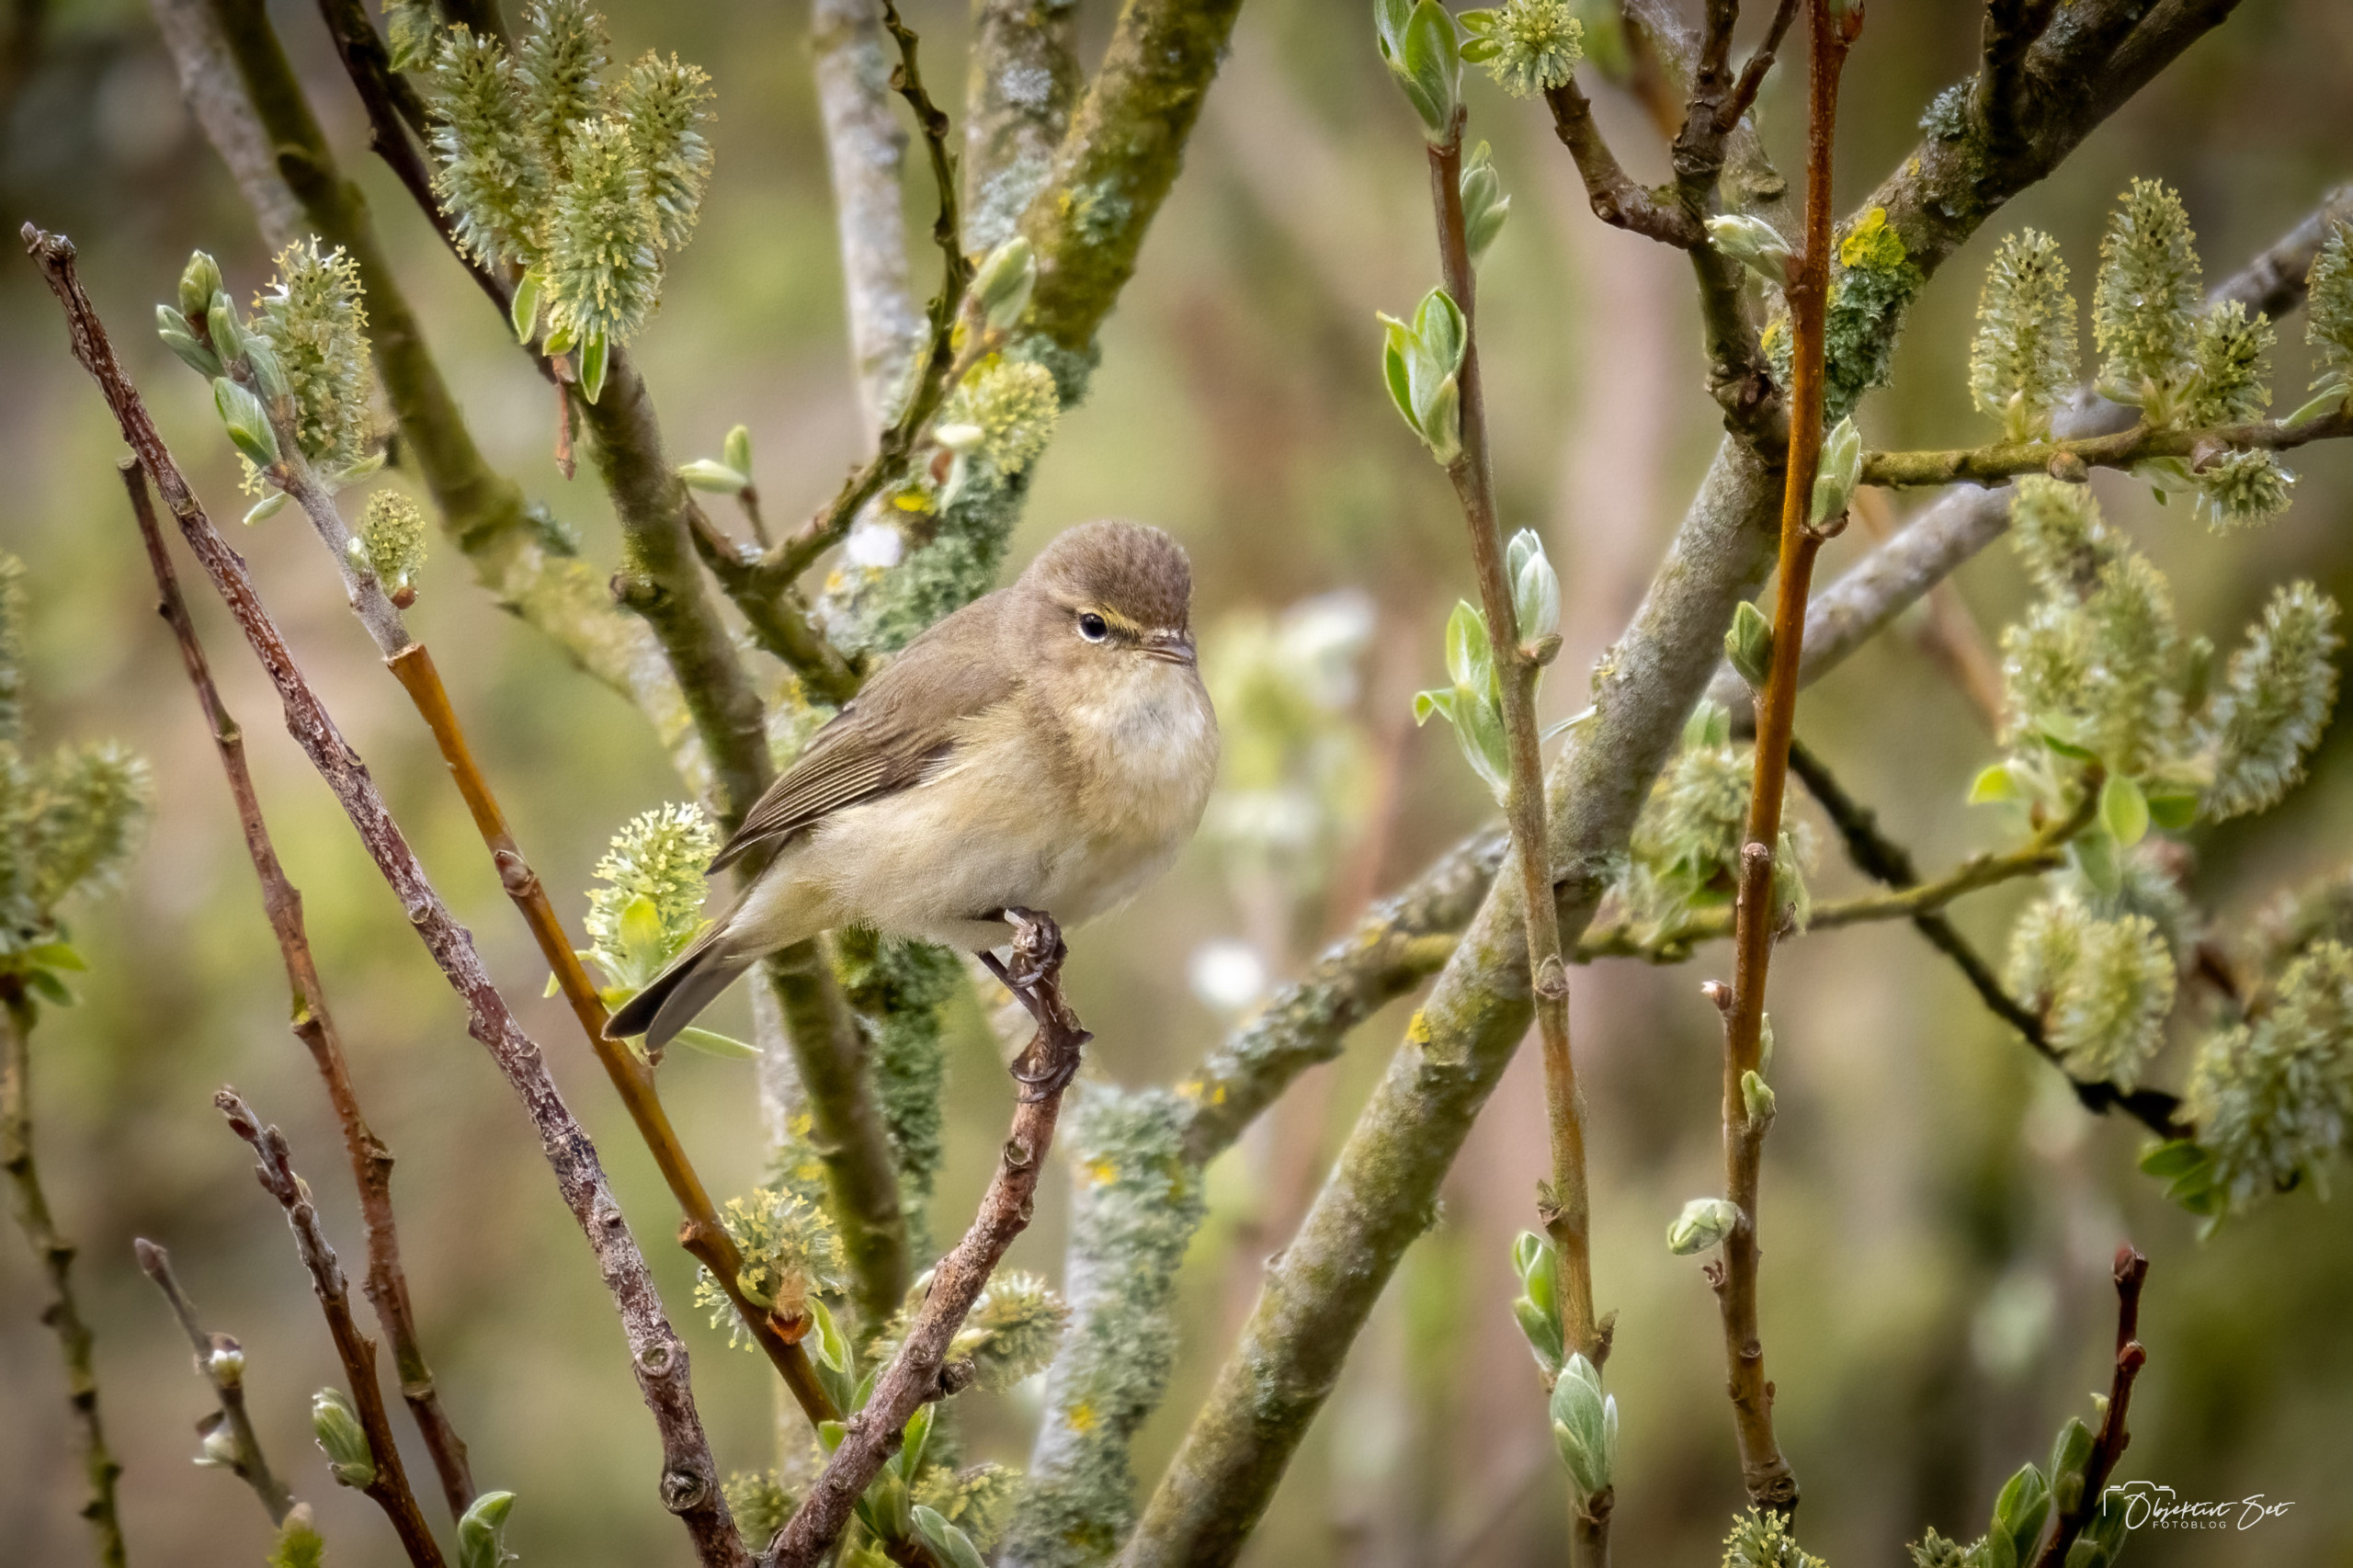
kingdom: Animalia
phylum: Chordata
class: Aves
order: Passeriformes
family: Phylloscopidae
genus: Phylloscopus
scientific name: Phylloscopus collybita
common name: Gransanger
